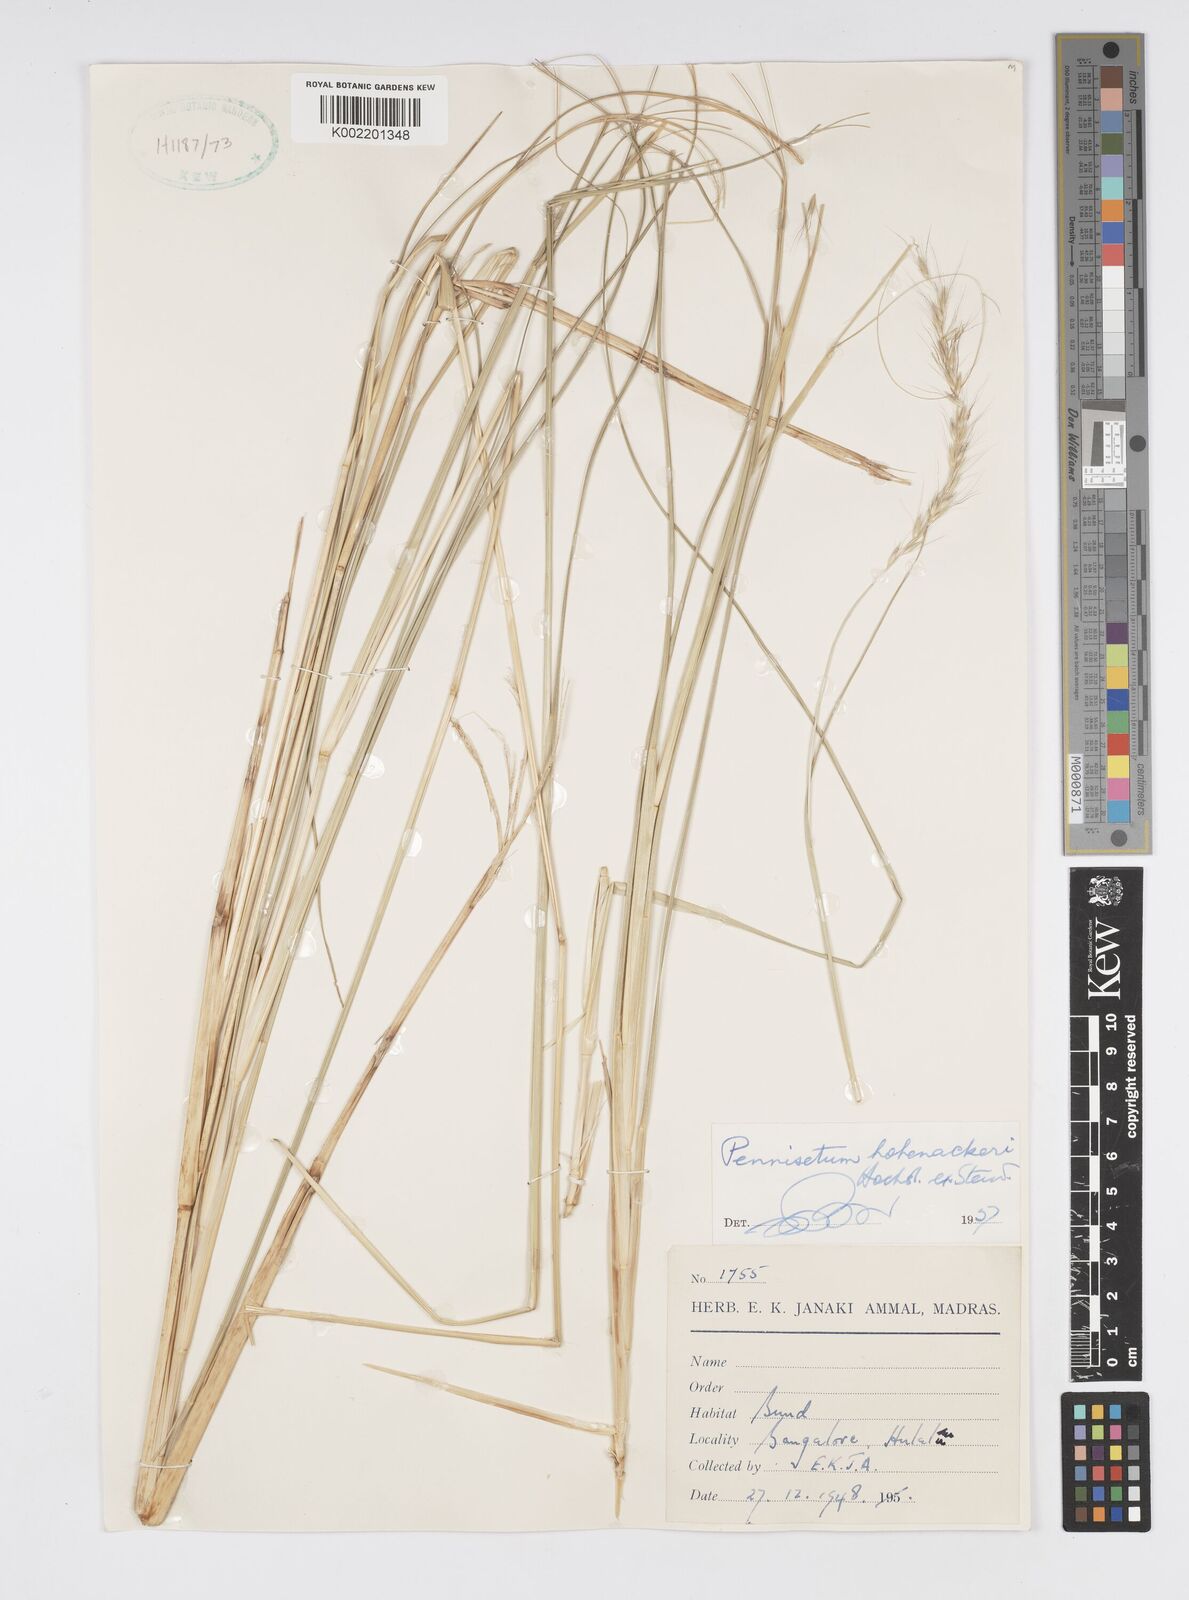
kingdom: Plantae
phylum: Tracheophyta
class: Liliopsida
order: Poales
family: Poaceae
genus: Cenchrus
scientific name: Cenchrus hohenackeri
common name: Moya grass
